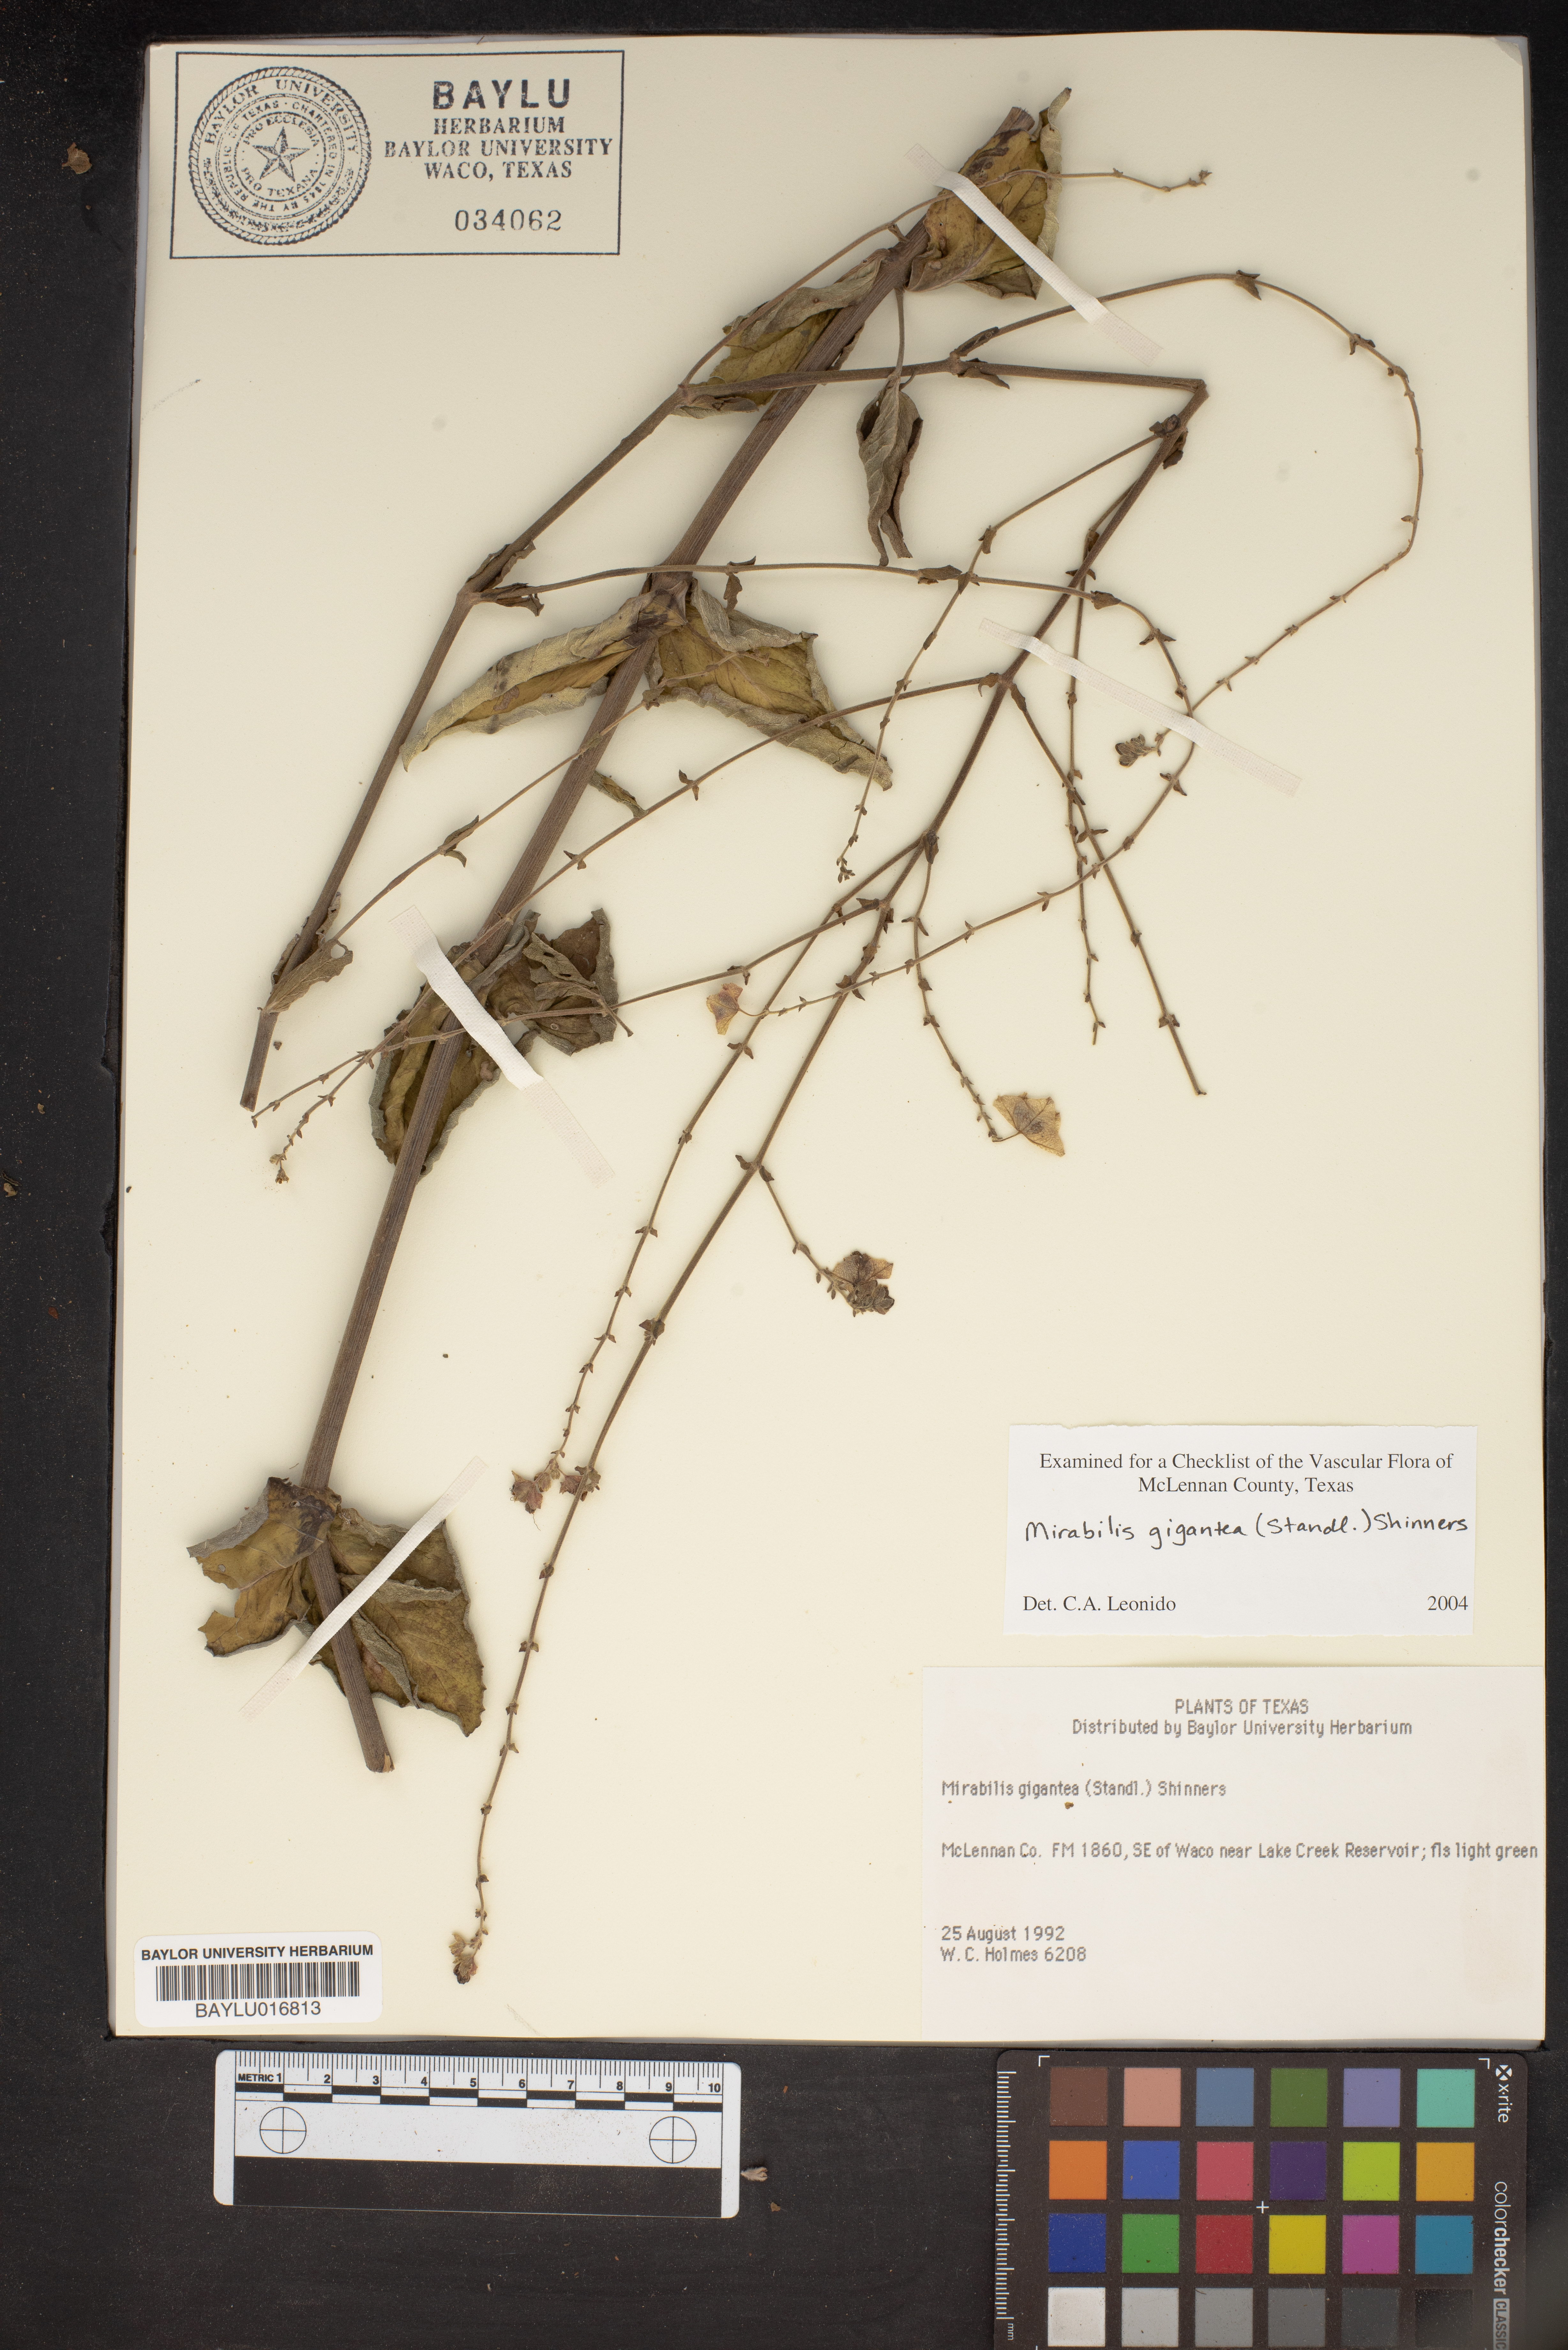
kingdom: Plantae
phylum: Tracheophyta
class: Magnoliopsida
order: Caryophyllales
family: Nyctaginaceae
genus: Mirabilis
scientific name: Mirabilis gigantea
